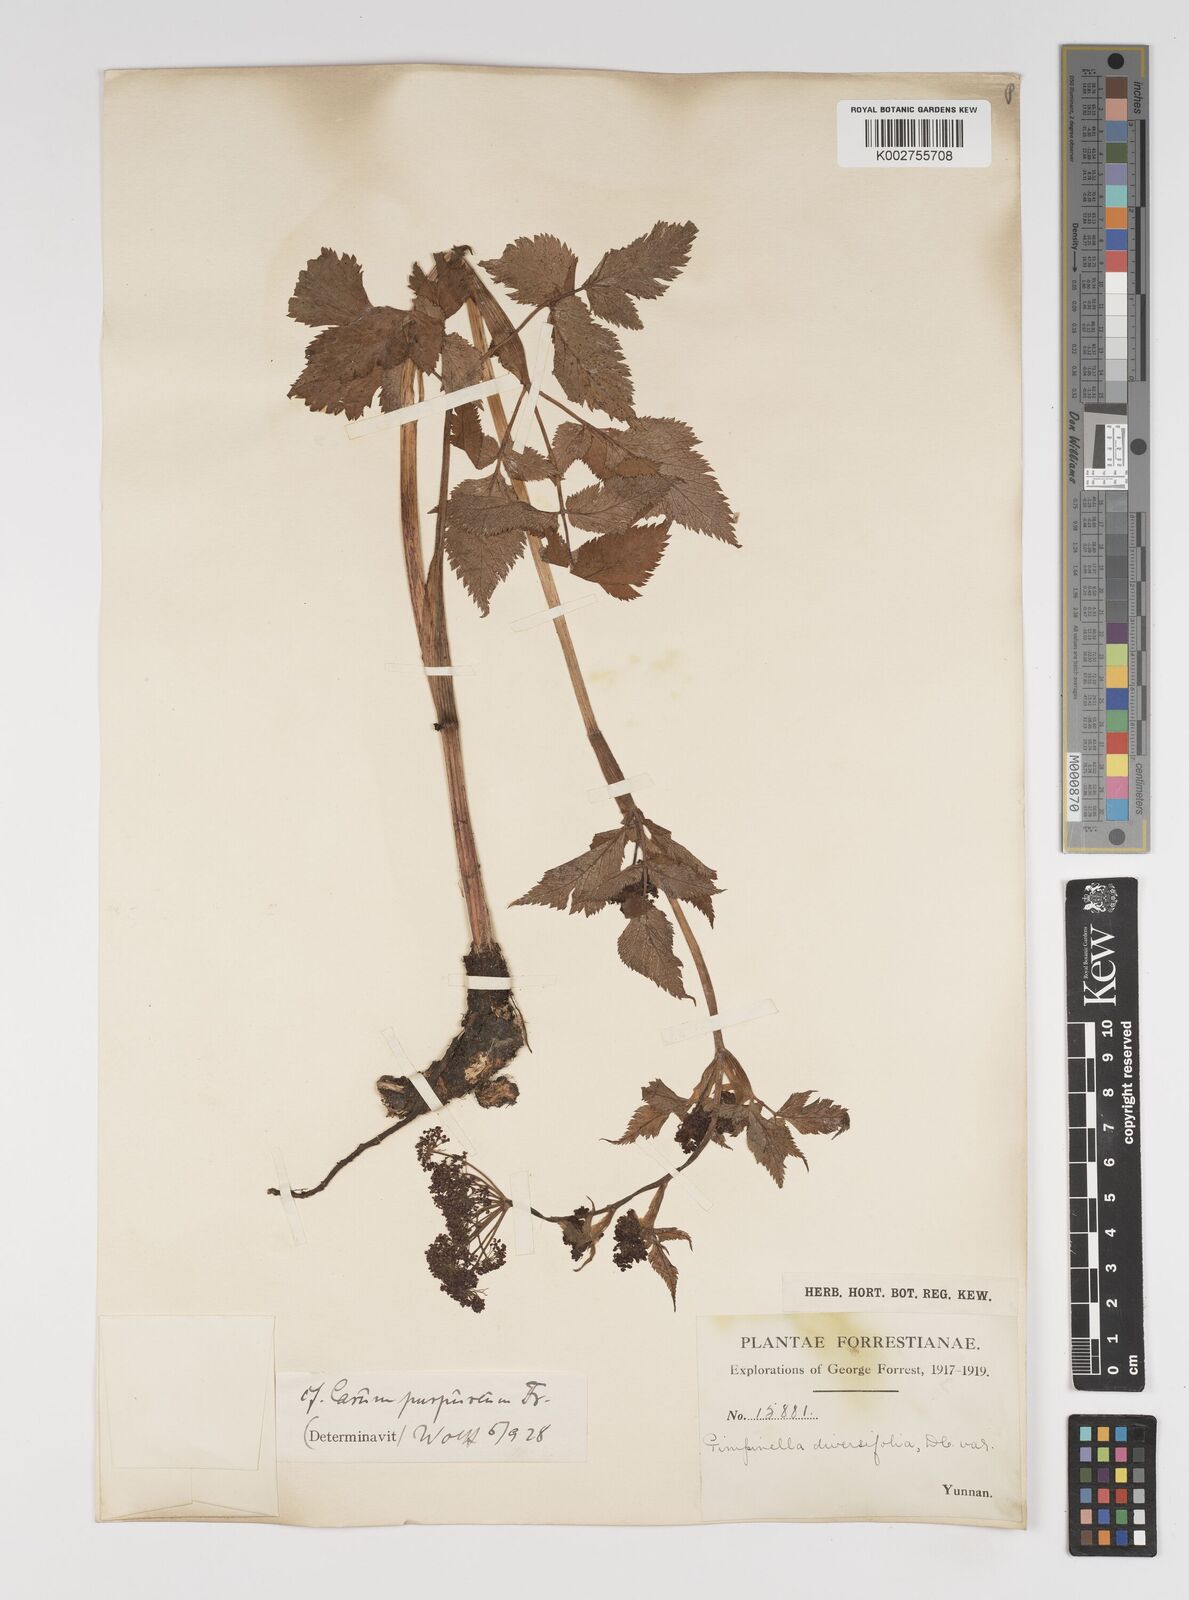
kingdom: Plantae
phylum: Tracheophyta
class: Magnoliopsida
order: Apiales
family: Apiaceae
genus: Pimpinella
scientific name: Pimpinella diversifolia
